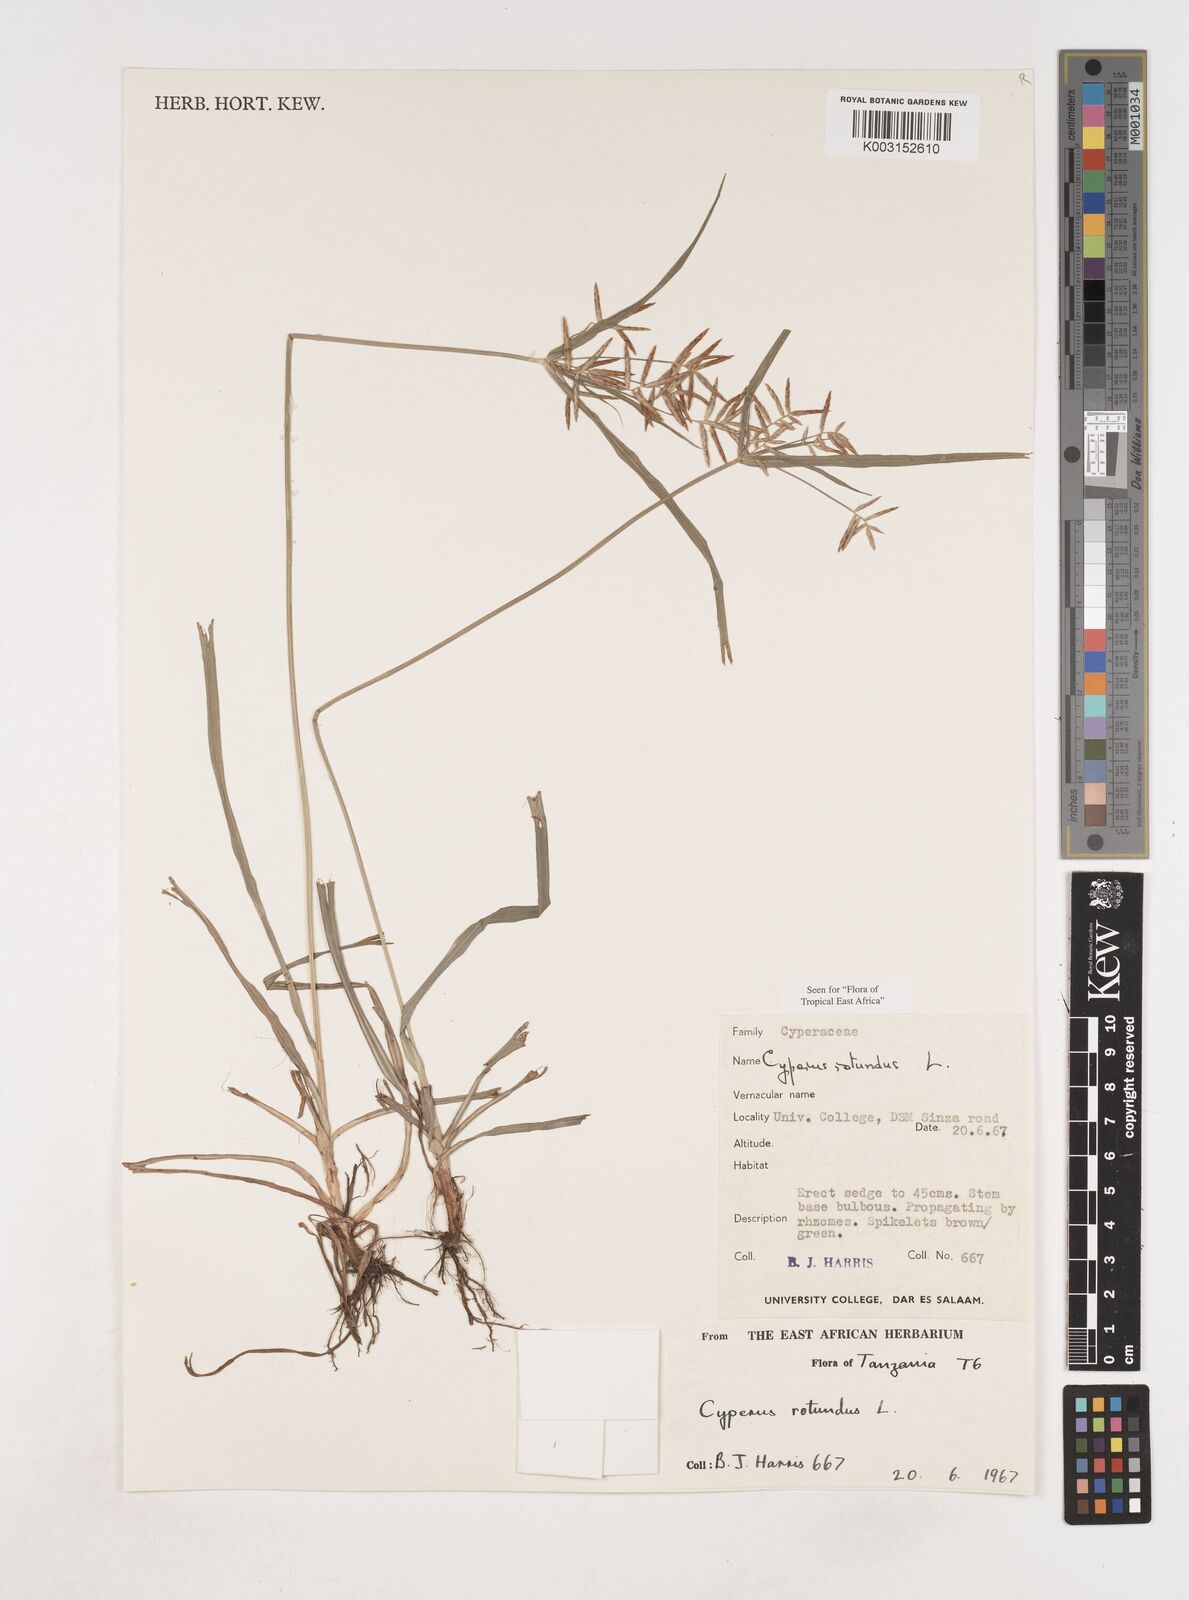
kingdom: Plantae
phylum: Tracheophyta
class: Liliopsida
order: Poales
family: Cyperaceae
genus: Cyperus
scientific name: Cyperus rotundus
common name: Nutgrass
